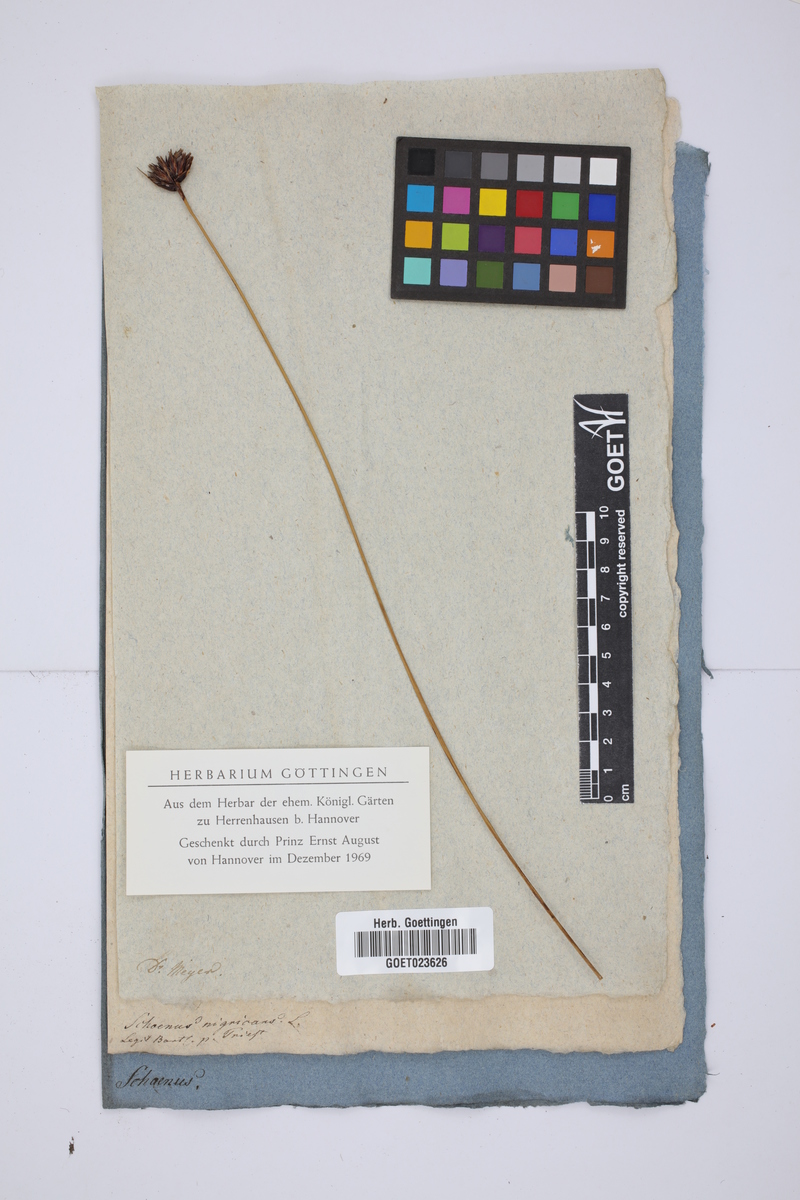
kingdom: Plantae
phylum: Tracheophyta
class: Liliopsida
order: Poales
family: Cyperaceae
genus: Schoenus
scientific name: Schoenus nigricans
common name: Black bog-rush
